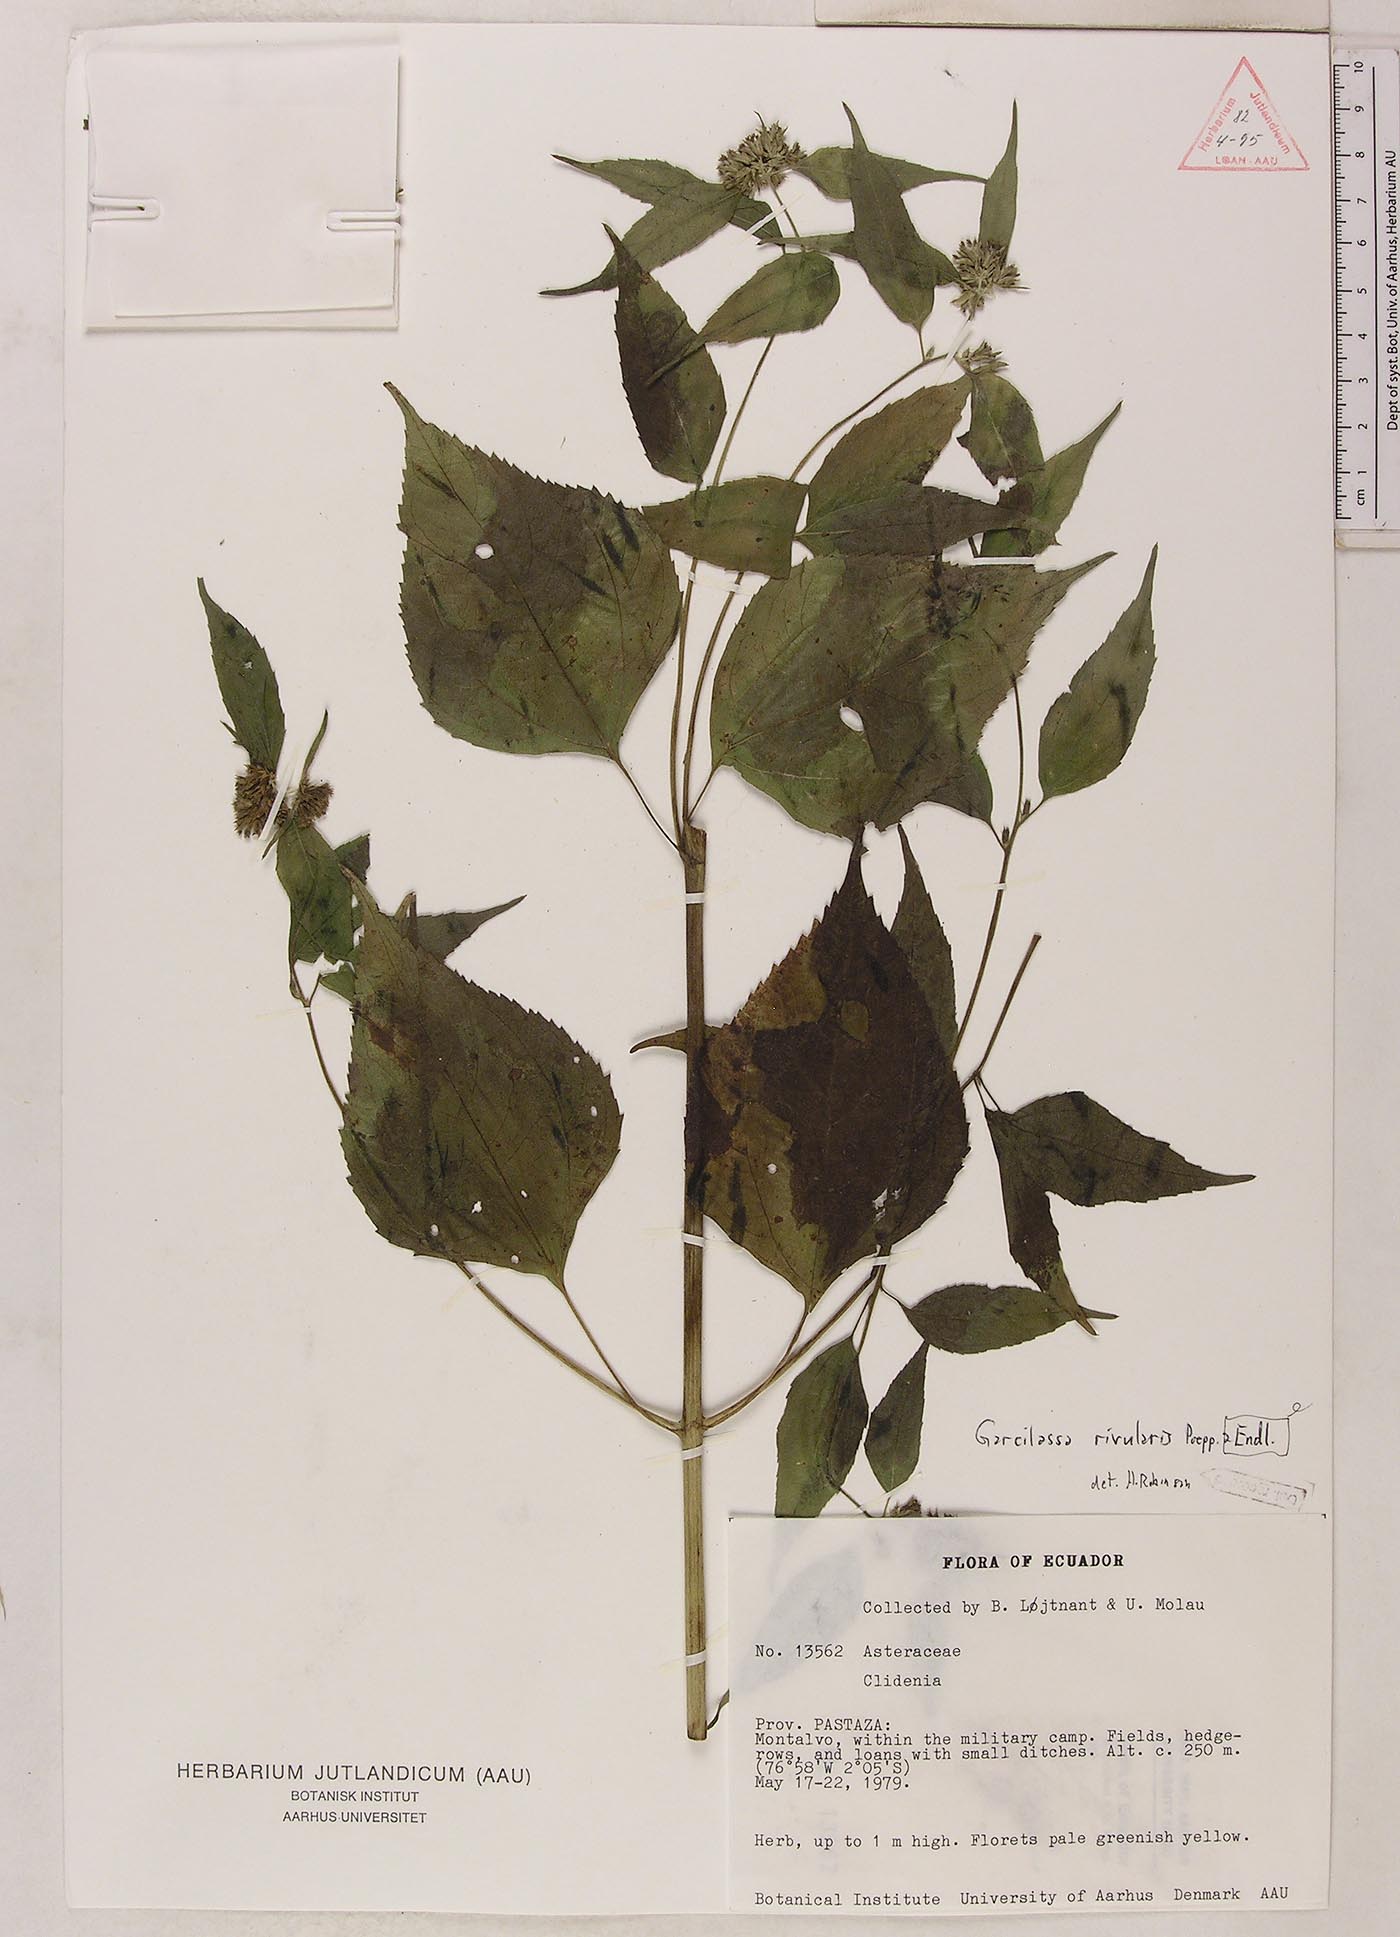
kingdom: Plantae
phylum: Tracheophyta
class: Magnoliopsida
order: Asterales
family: Asteraceae
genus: Hymenostephium
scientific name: Hymenostephium rivularis
